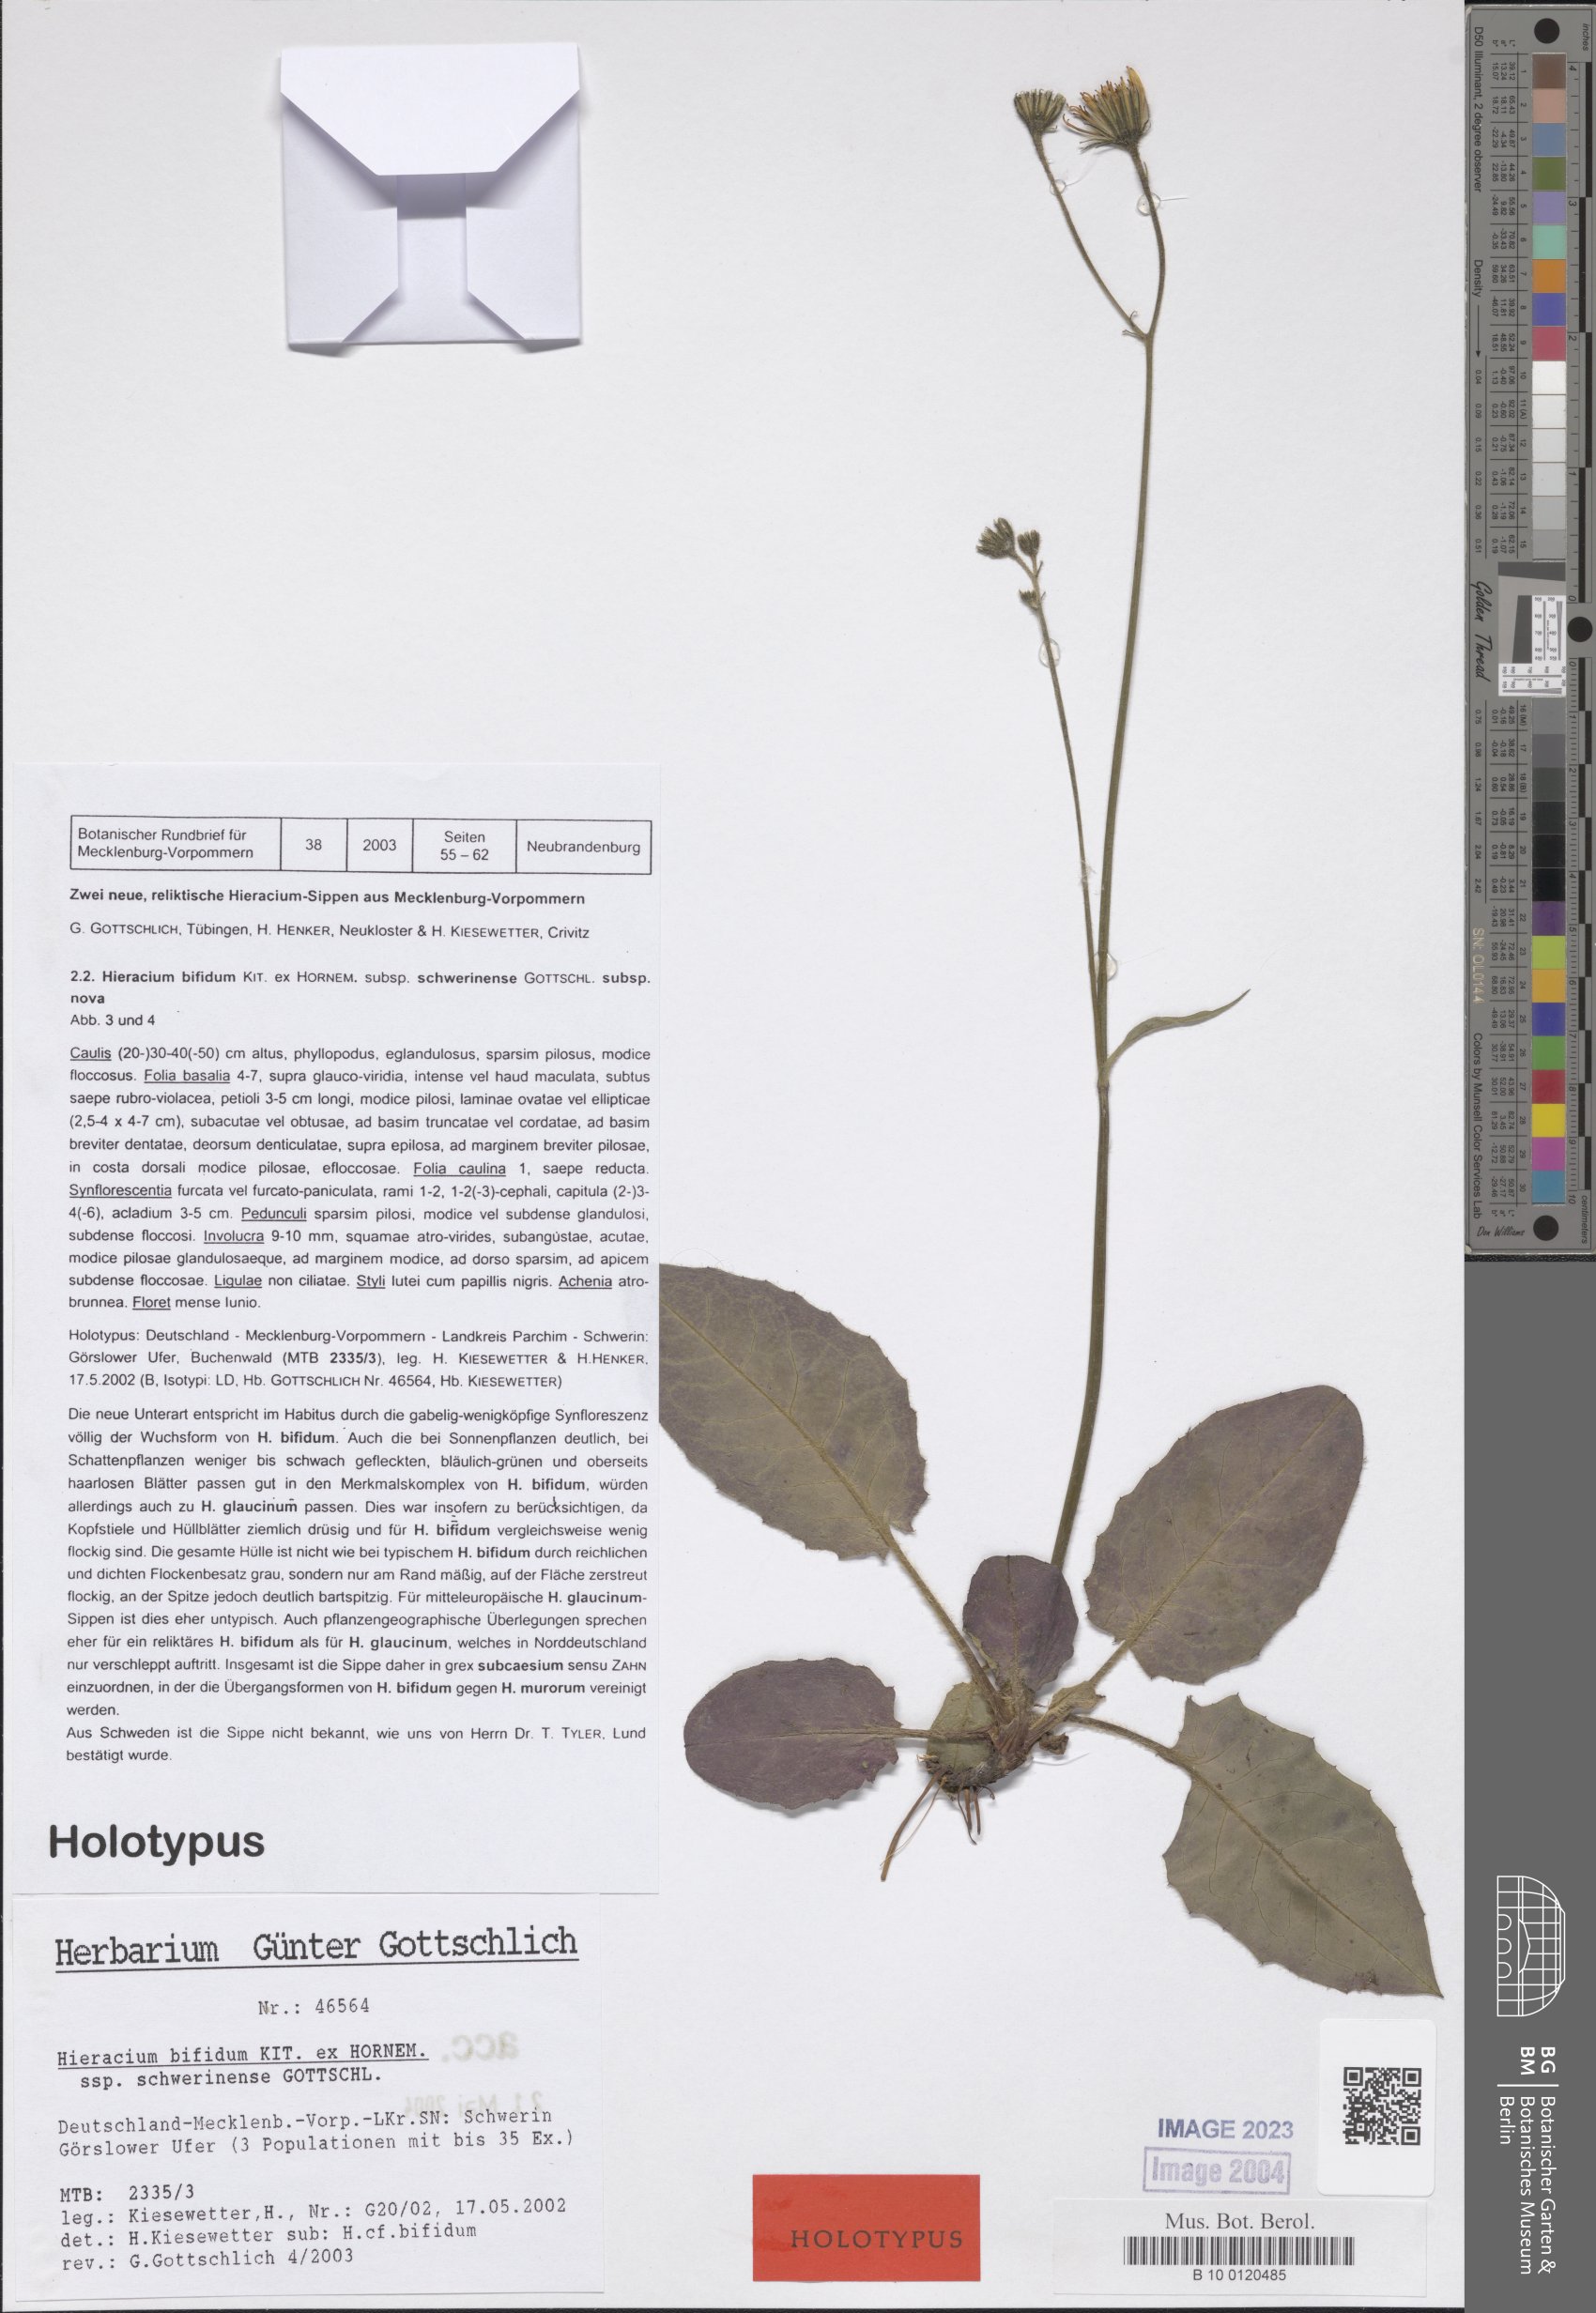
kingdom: Plantae
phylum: Tracheophyta
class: Magnoliopsida
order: Asterales
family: Asteraceae
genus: Hieracium
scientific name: Hieracium bifidum
